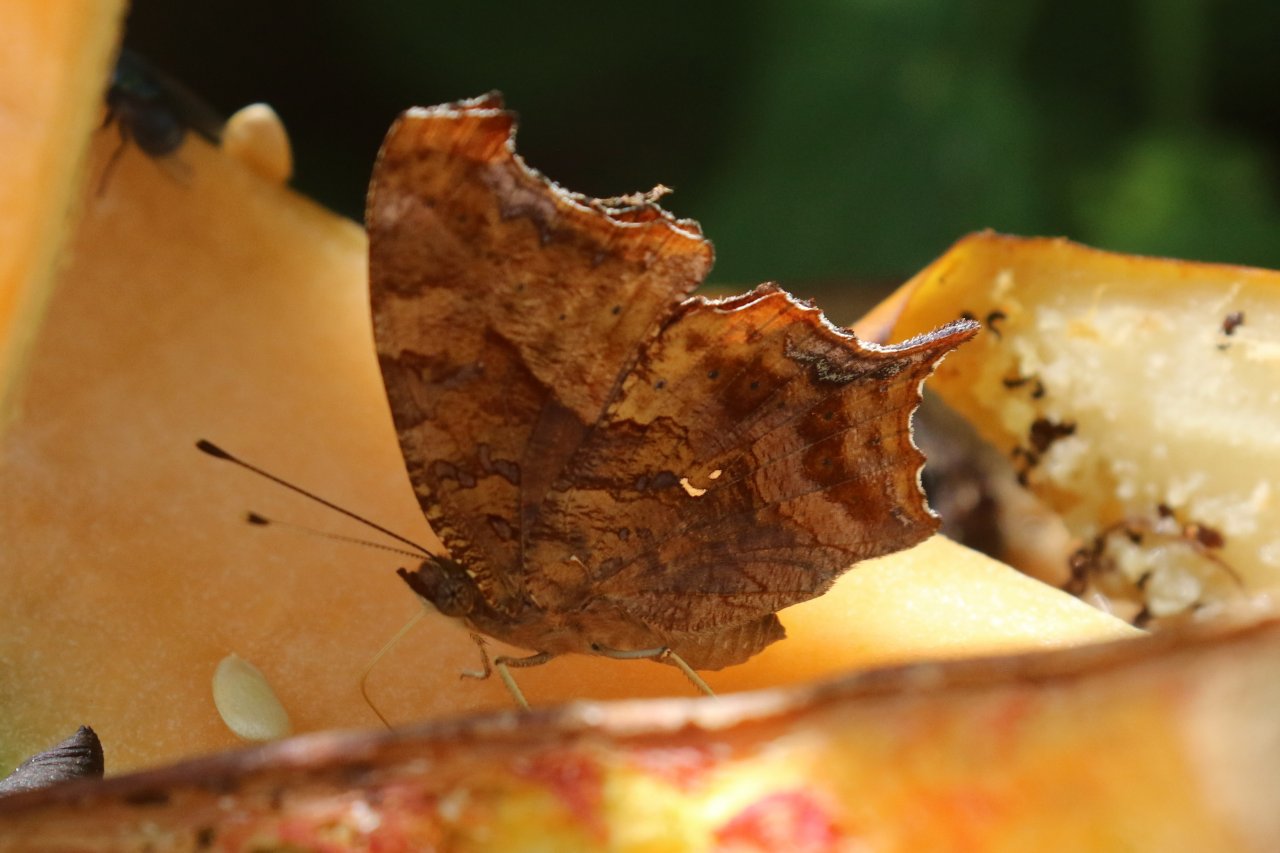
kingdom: Animalia
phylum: Arthropoda
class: Insecta
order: Lepidoptera
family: Nymphalidae
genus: Polygonia
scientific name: Polygonia interrogationis
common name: Question Mark
